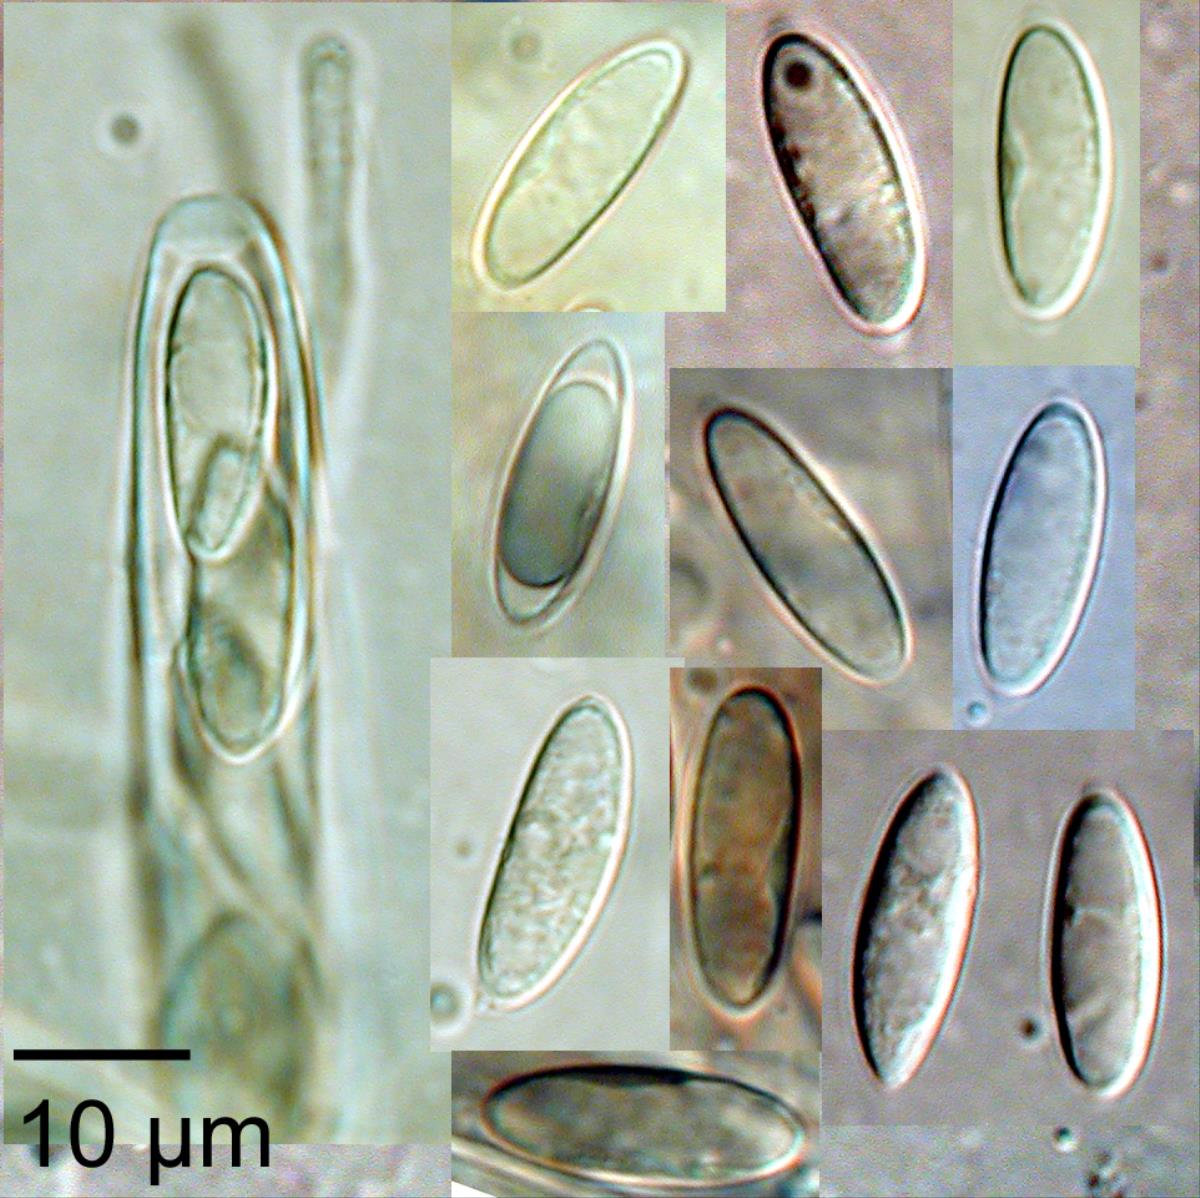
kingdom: Fungi
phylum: Ascomycota
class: Leotiomycetes
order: Helotiales
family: Helotiaceae
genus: Hymenotorrendiella
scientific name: Hymenotorrendiella clelandii
